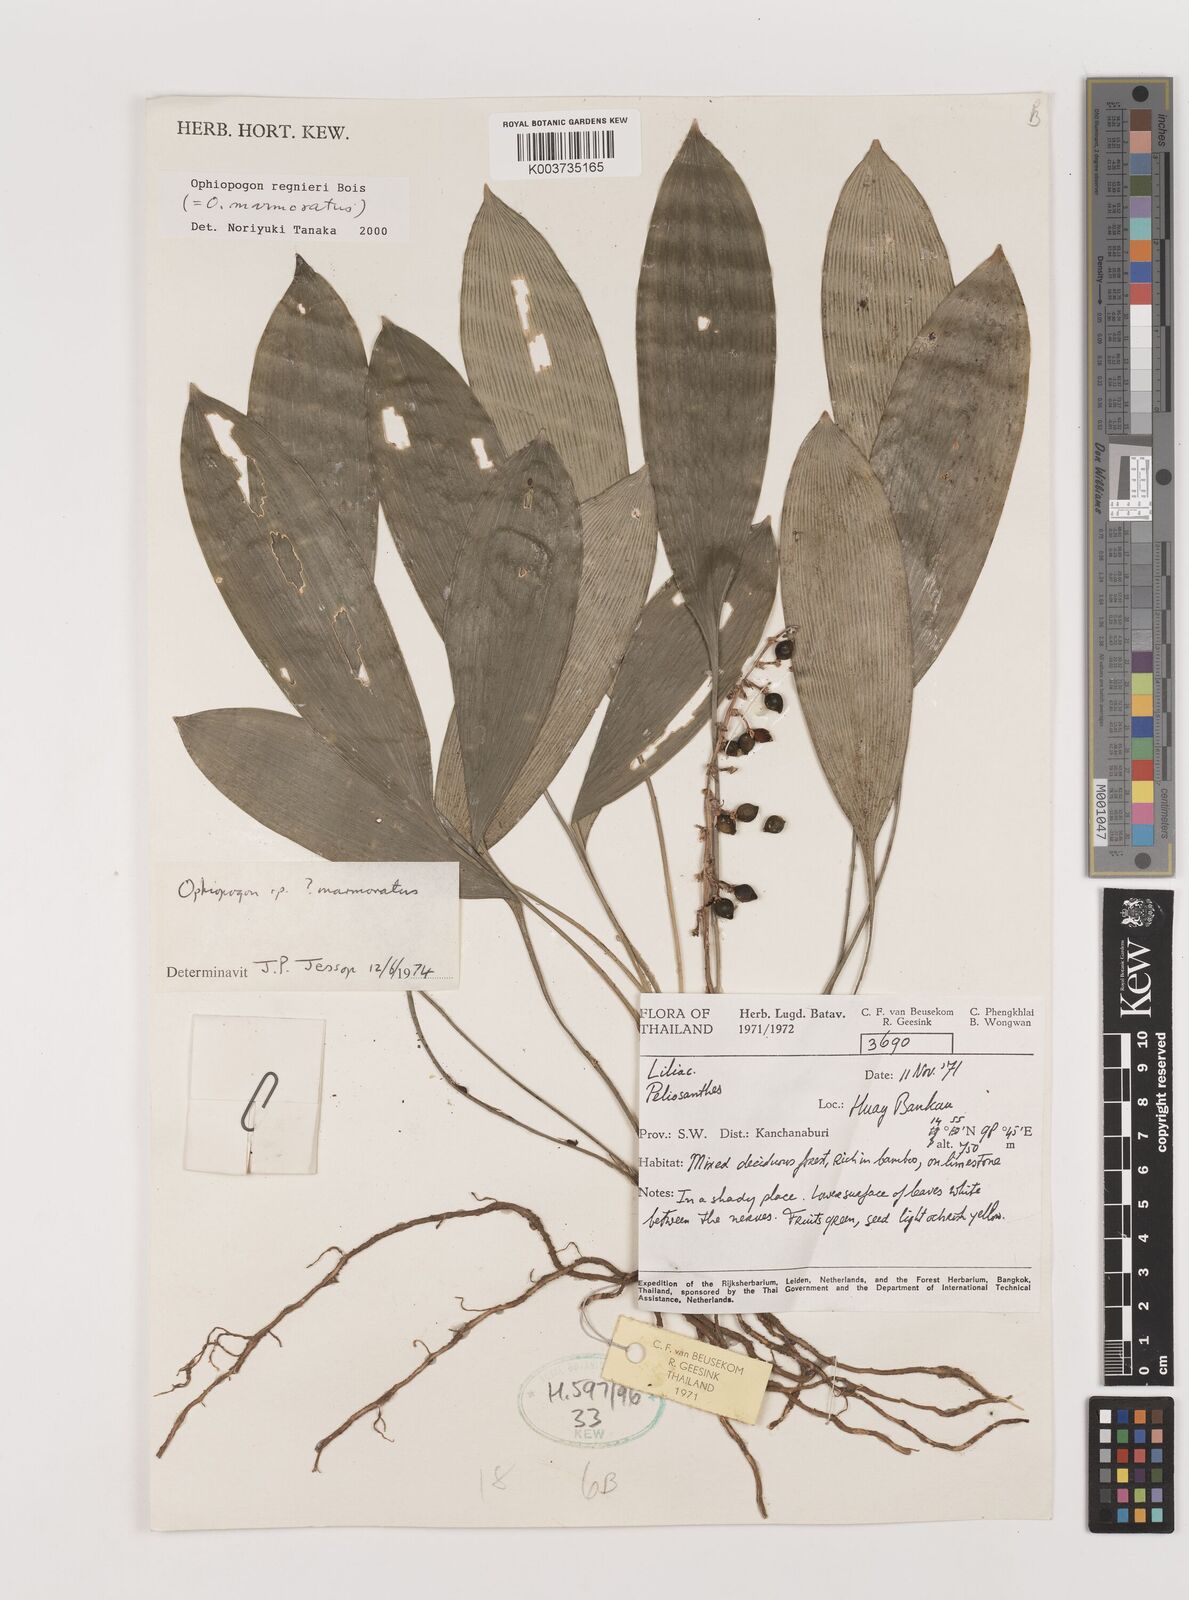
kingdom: Plantae
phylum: Tracheophyta
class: Liliopsida
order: Asparagales
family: Asparagaceae
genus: Ophiopogon
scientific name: Ophiopogon regnieri
